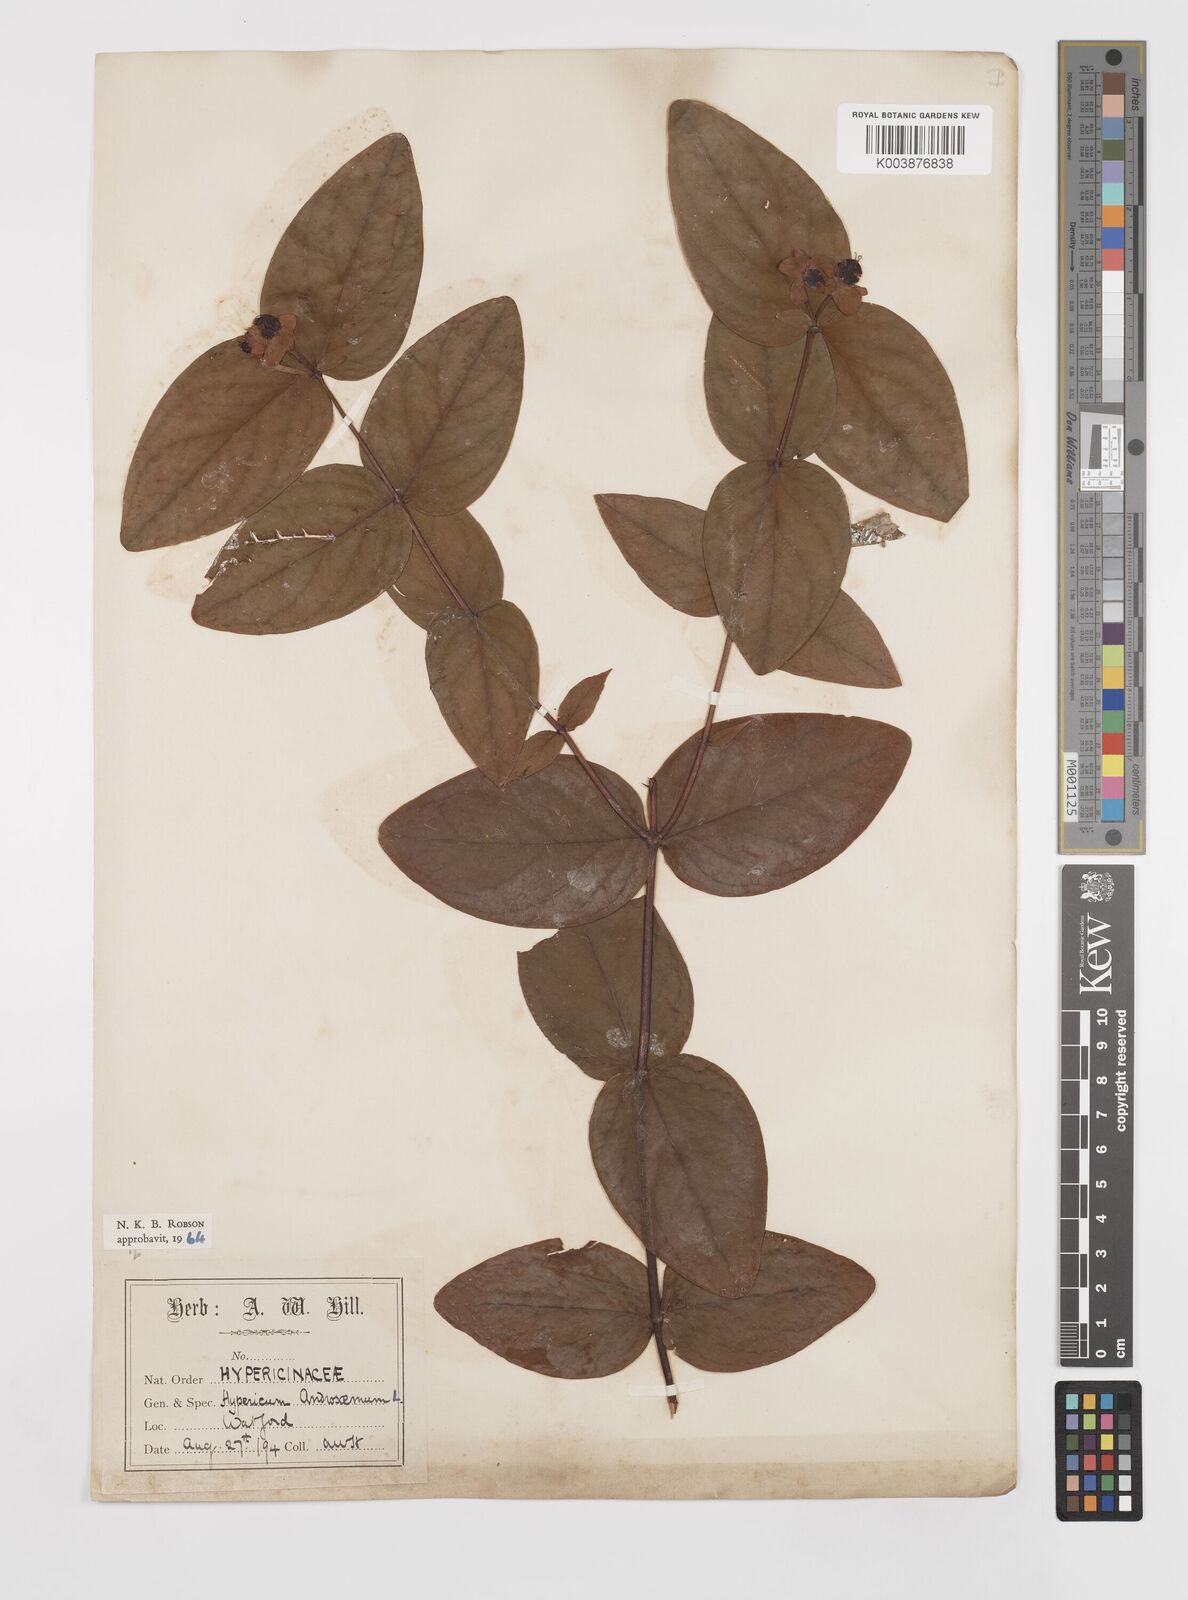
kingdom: Plantae
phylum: Tracheophyta
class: Magnoliopsida
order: Malpighiales
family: Hypericaceae
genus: Hypericum
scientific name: Hypericum androsaemum
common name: Sweet-amber
